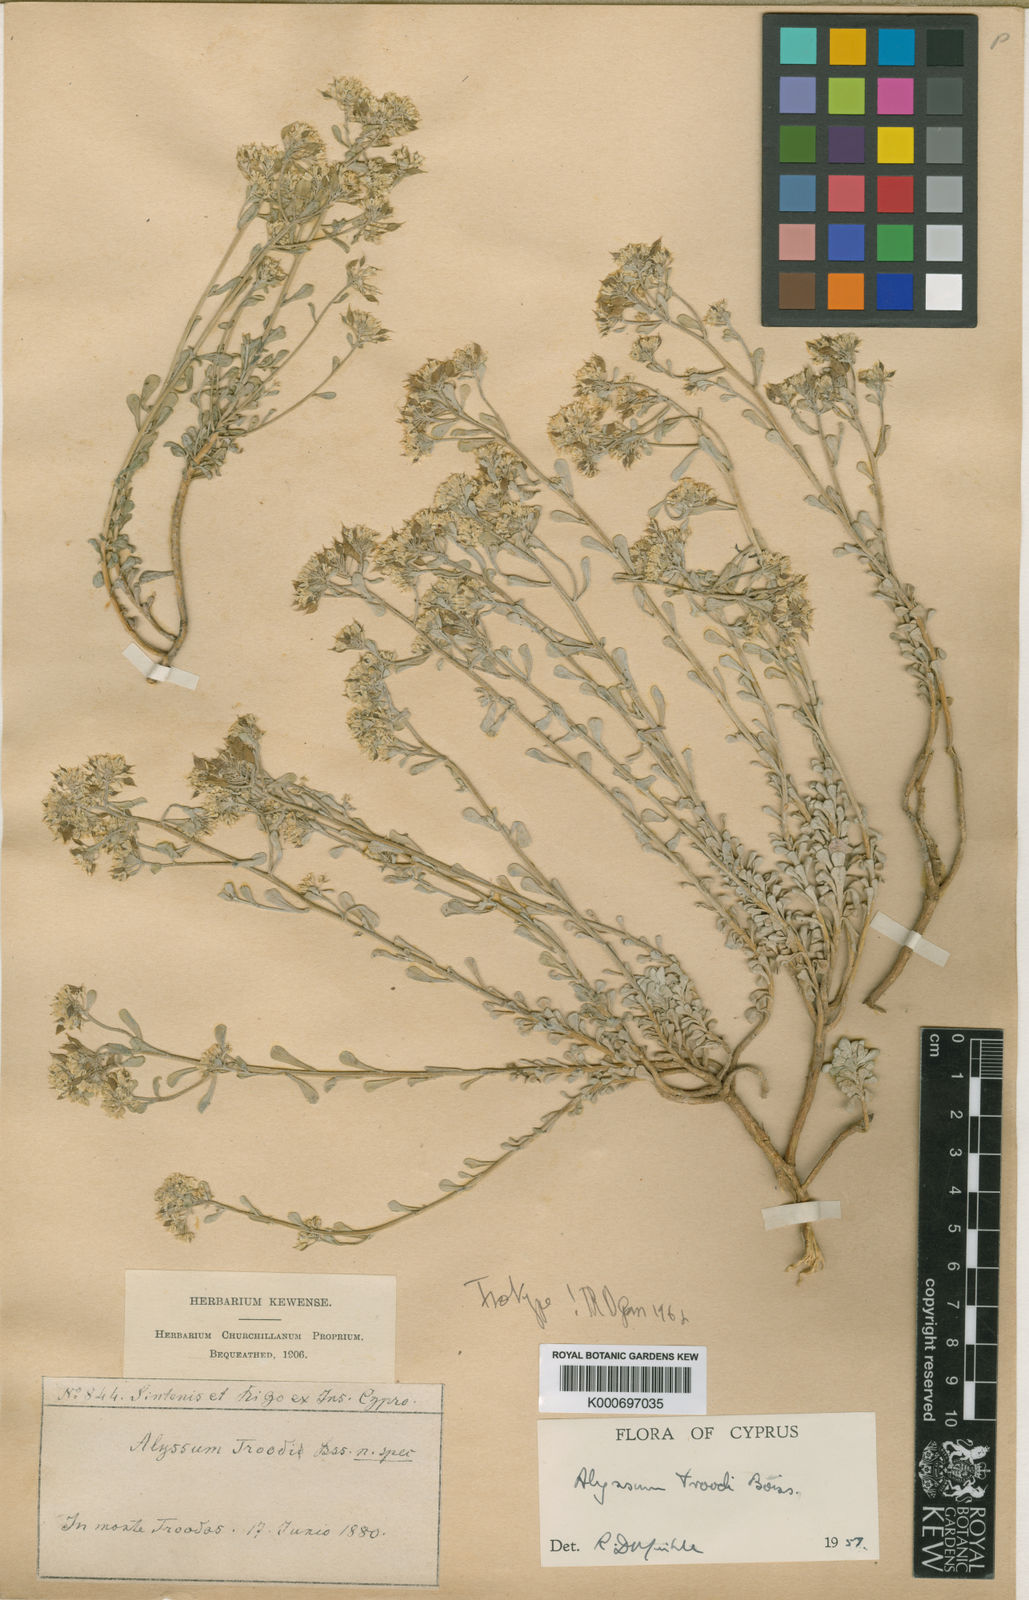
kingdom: Plantae
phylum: Tracheophyta
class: Magnoliopsida
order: Brassicales
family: Brassicaceae
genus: Odontarrhena
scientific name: Odontarrhena troodi
